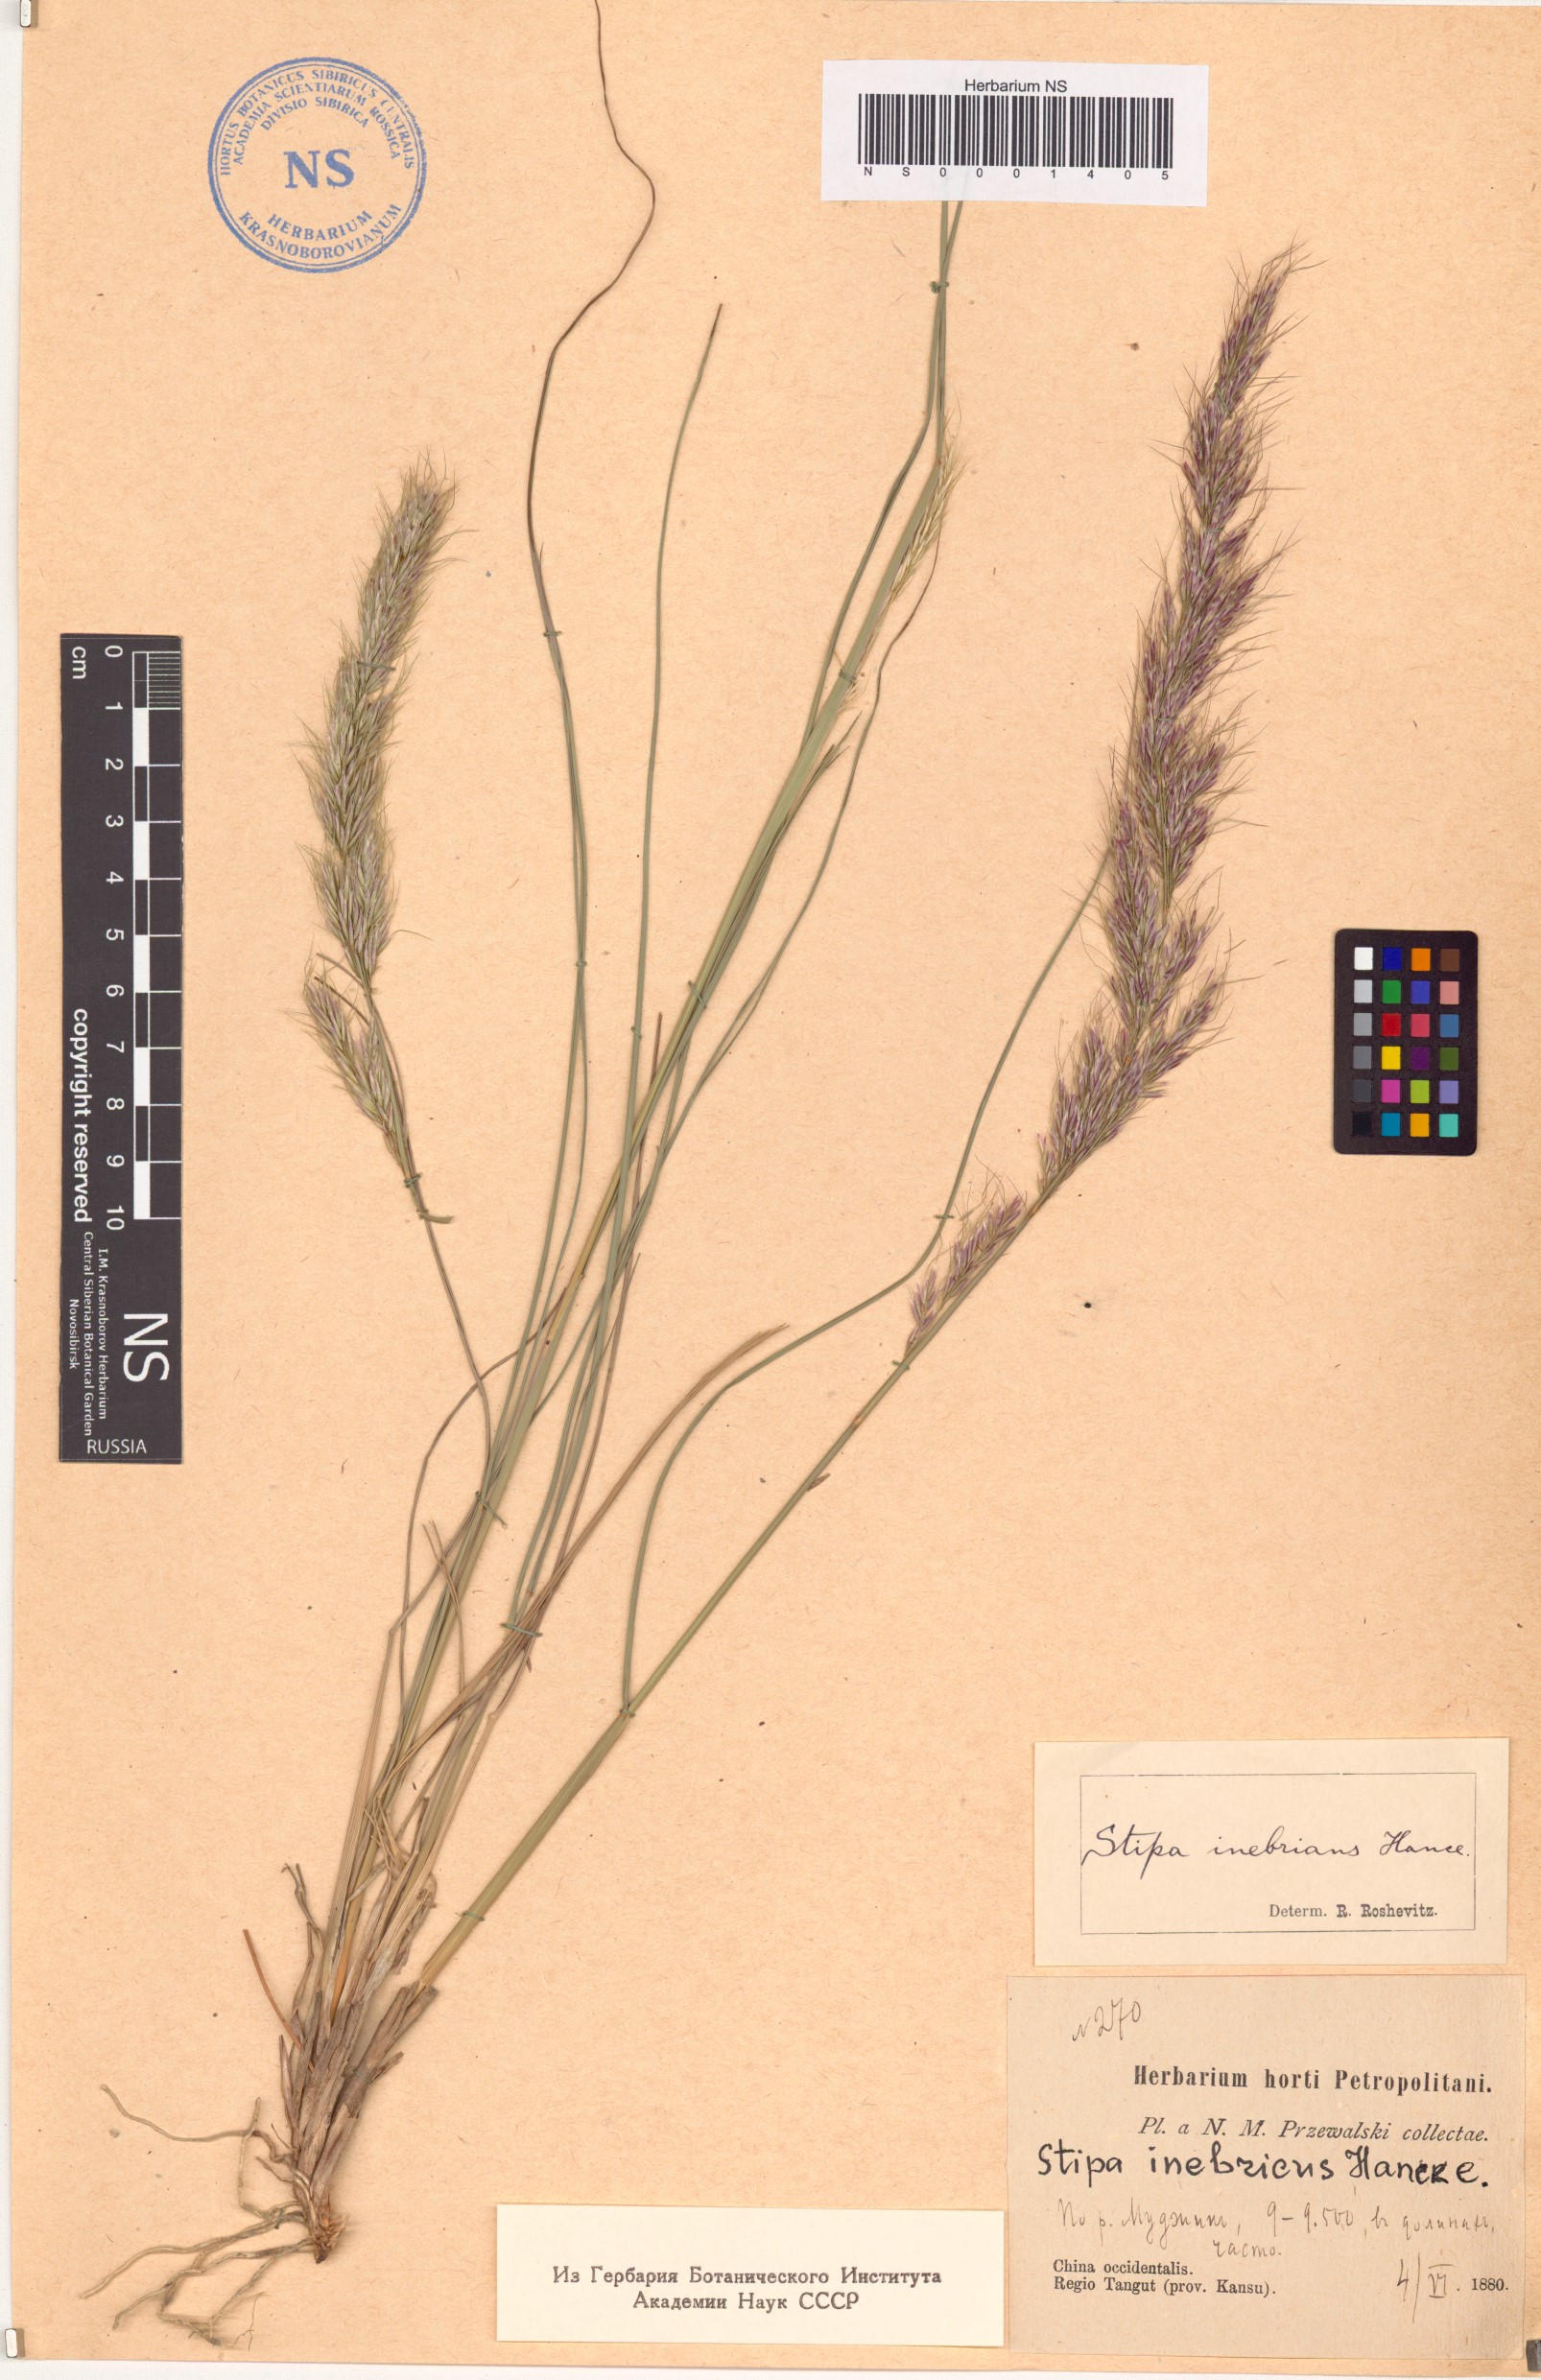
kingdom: Plantae
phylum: Tracheophyta
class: Liliopsida
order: Poales
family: Poaceae
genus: Achnatherum
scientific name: Achnatherum inebrians
